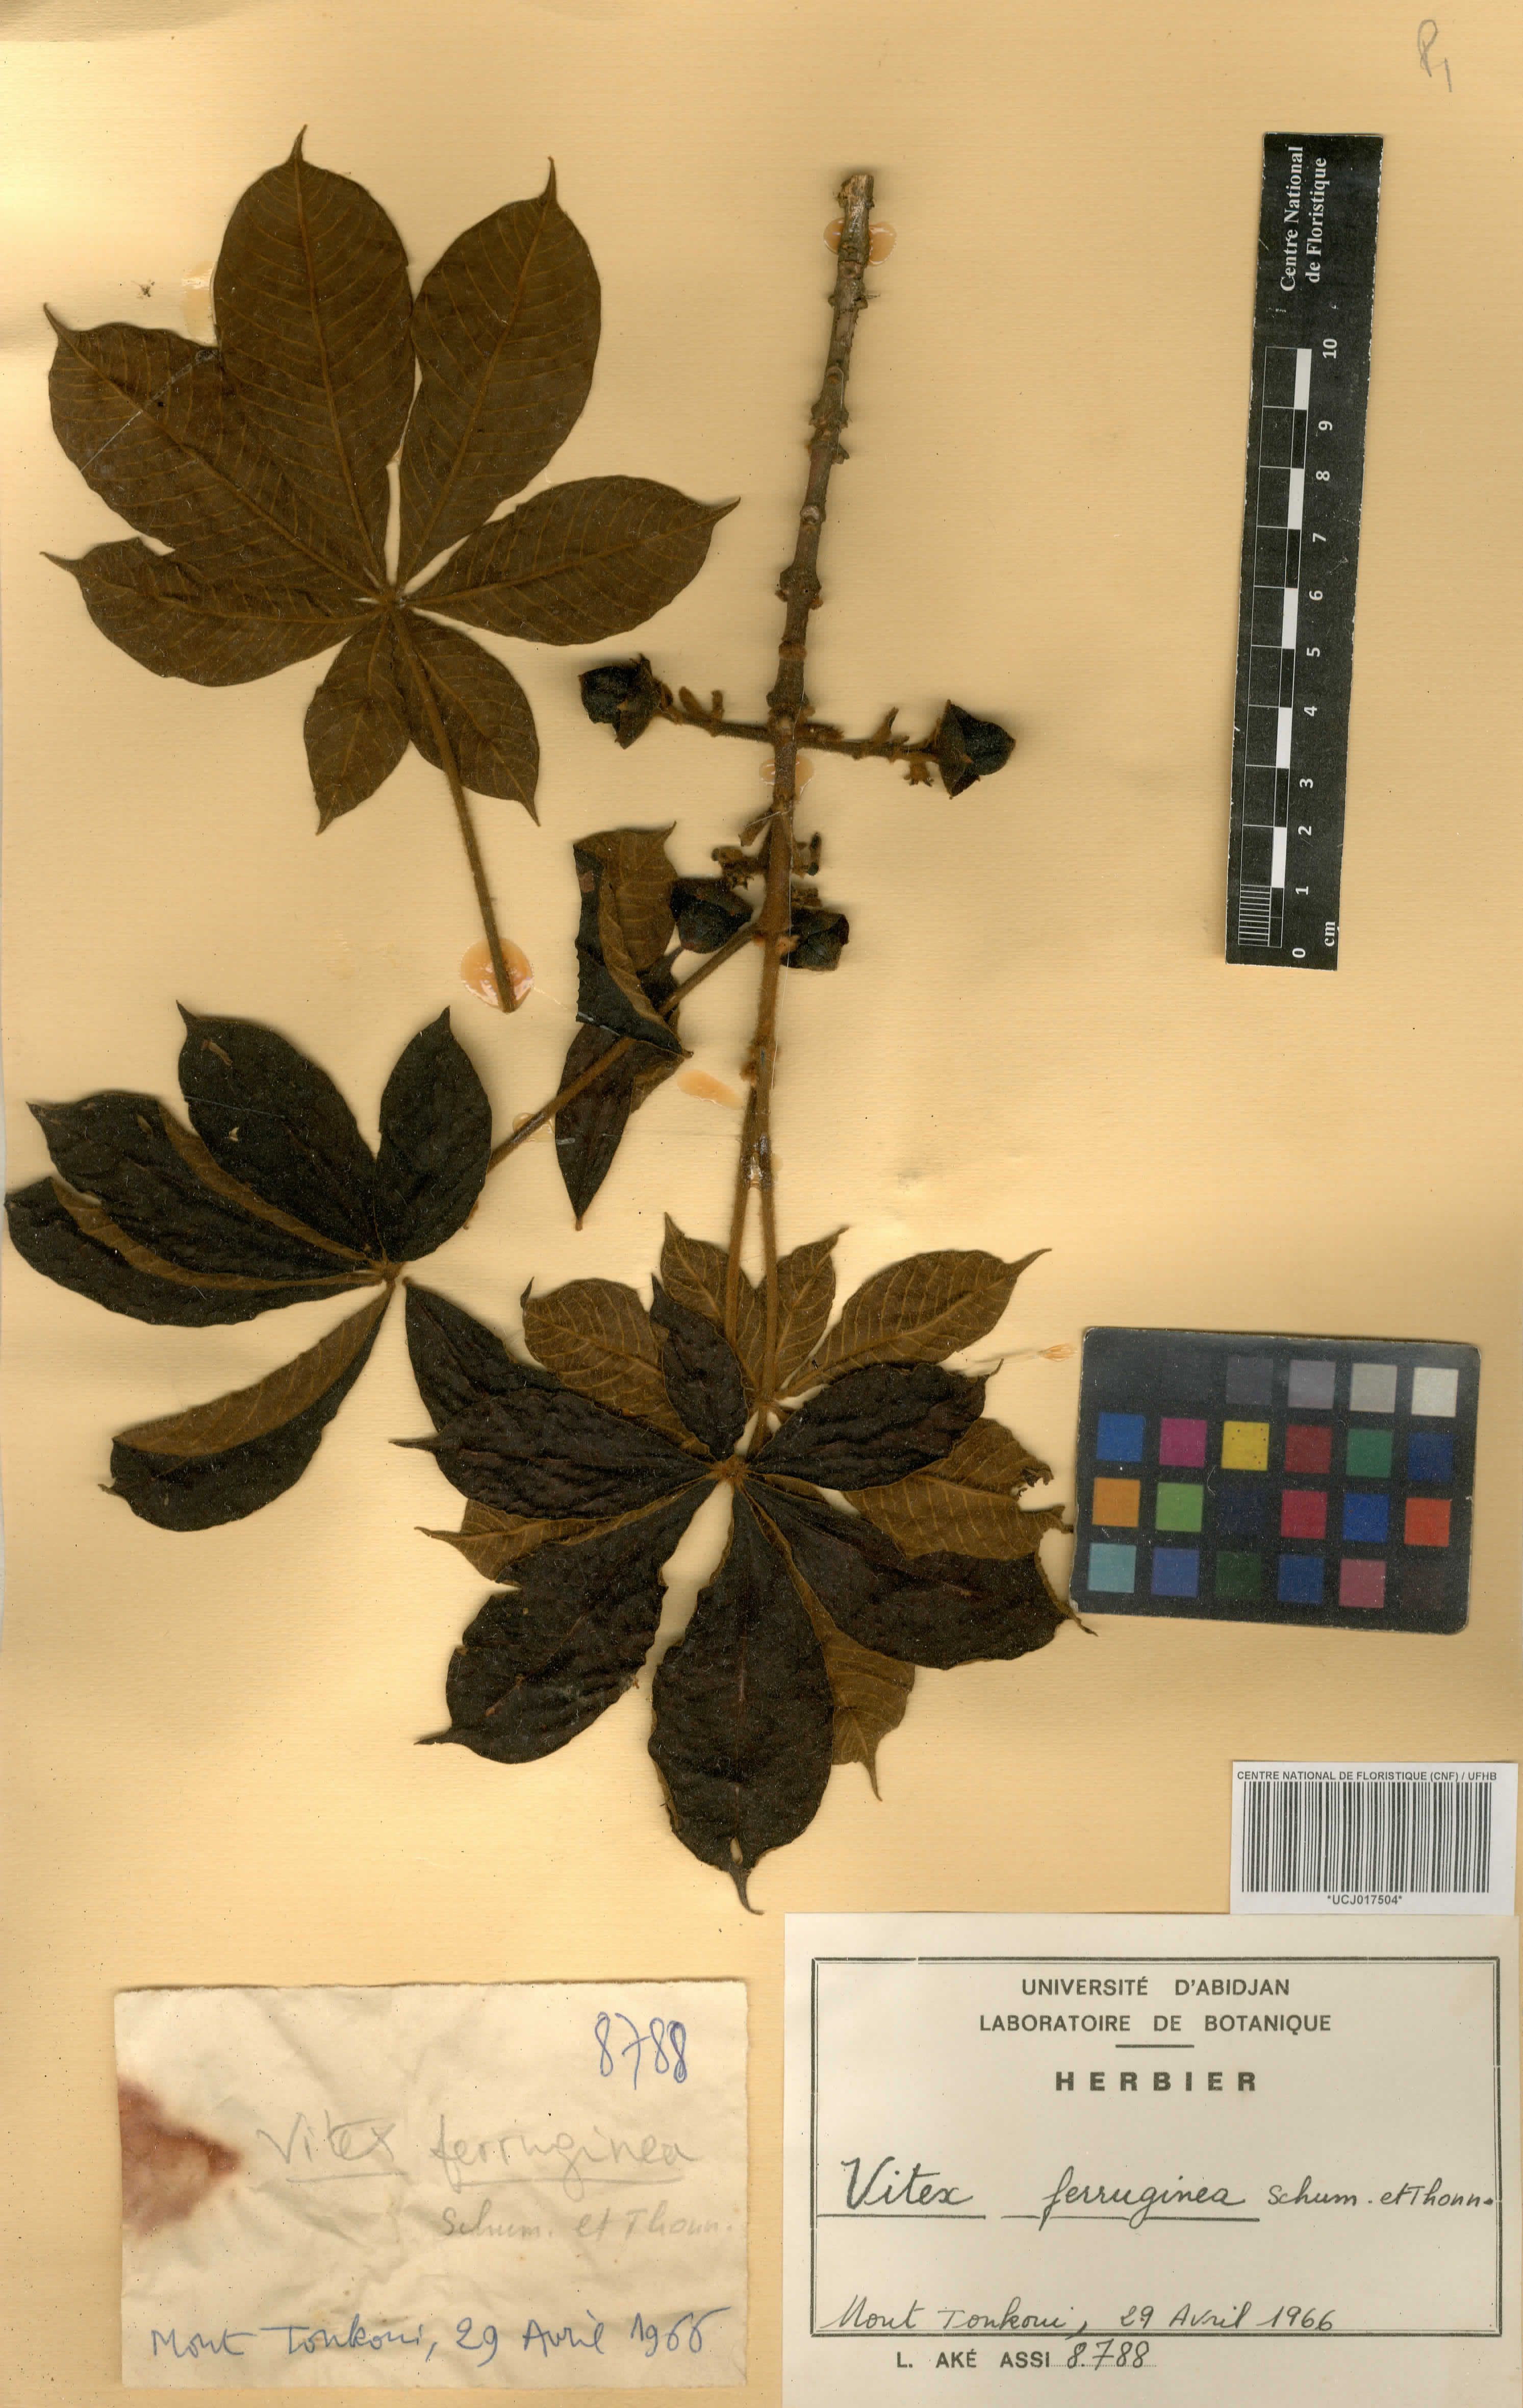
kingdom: Plantae
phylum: Tracheophyta
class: Magnoliopsida
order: Lamiales
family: Lamiaceae
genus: Vitex
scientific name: Vitex ferruginea
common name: Plum fingerleaf
